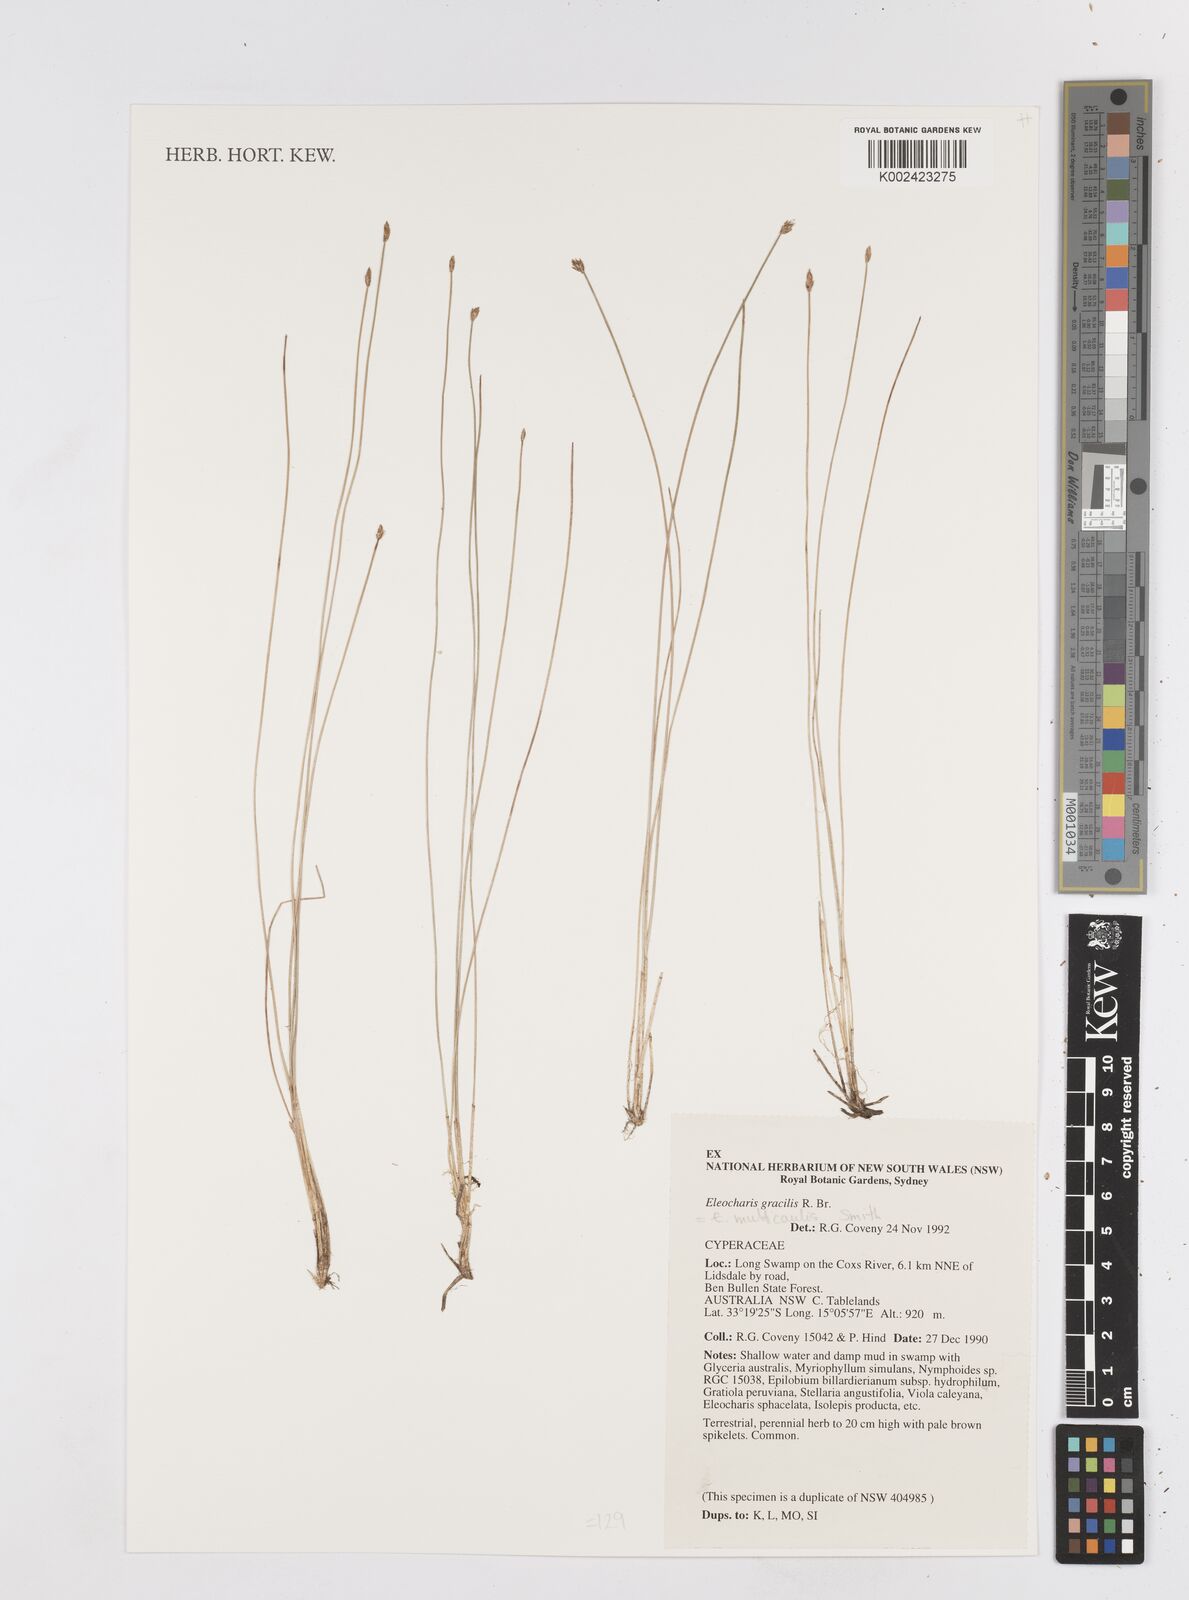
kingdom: Plantae
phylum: Tracheophyta
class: Liliopsida
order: Poales
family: Cyperaceae
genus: Eleocharis
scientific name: Eleocharis multicaulis
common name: Many-stalked spike-rush
